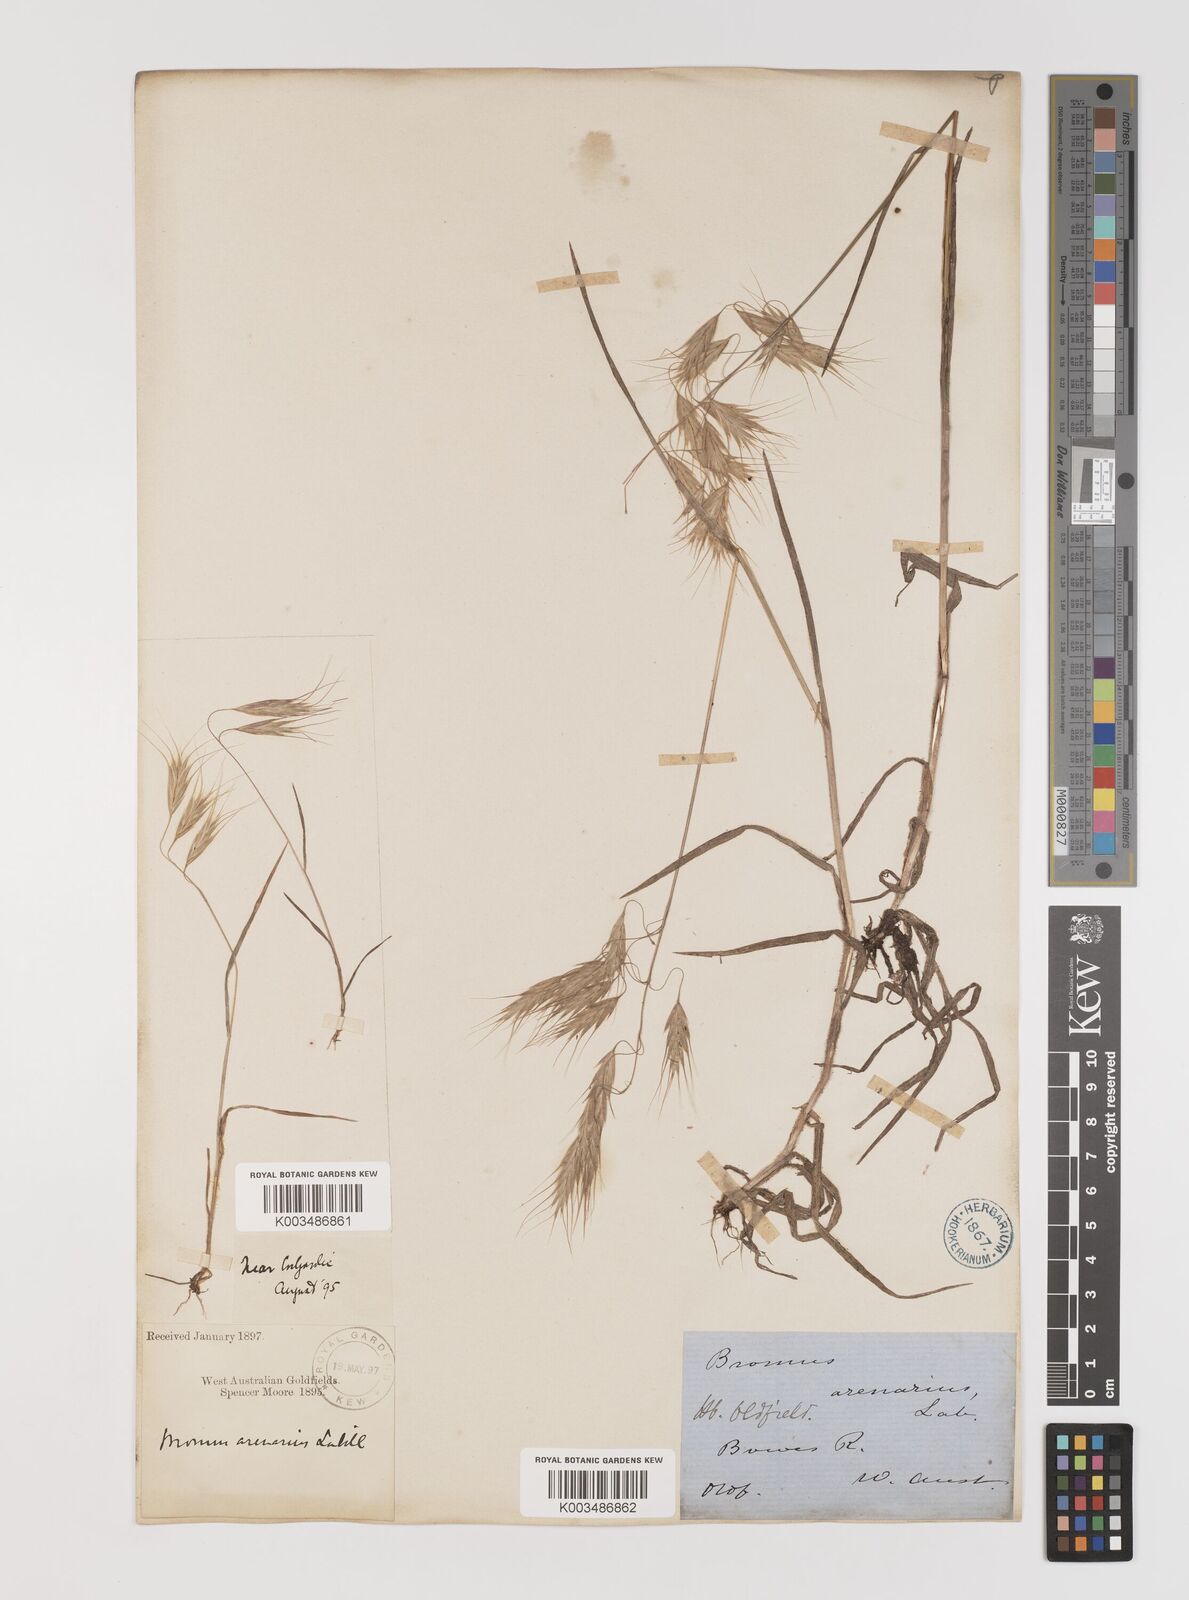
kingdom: Plantae
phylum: Tracheophyta
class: Liliopsida
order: Poales
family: Poaceae
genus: Bromus
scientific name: Bromus arenarius
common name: Australian brome
